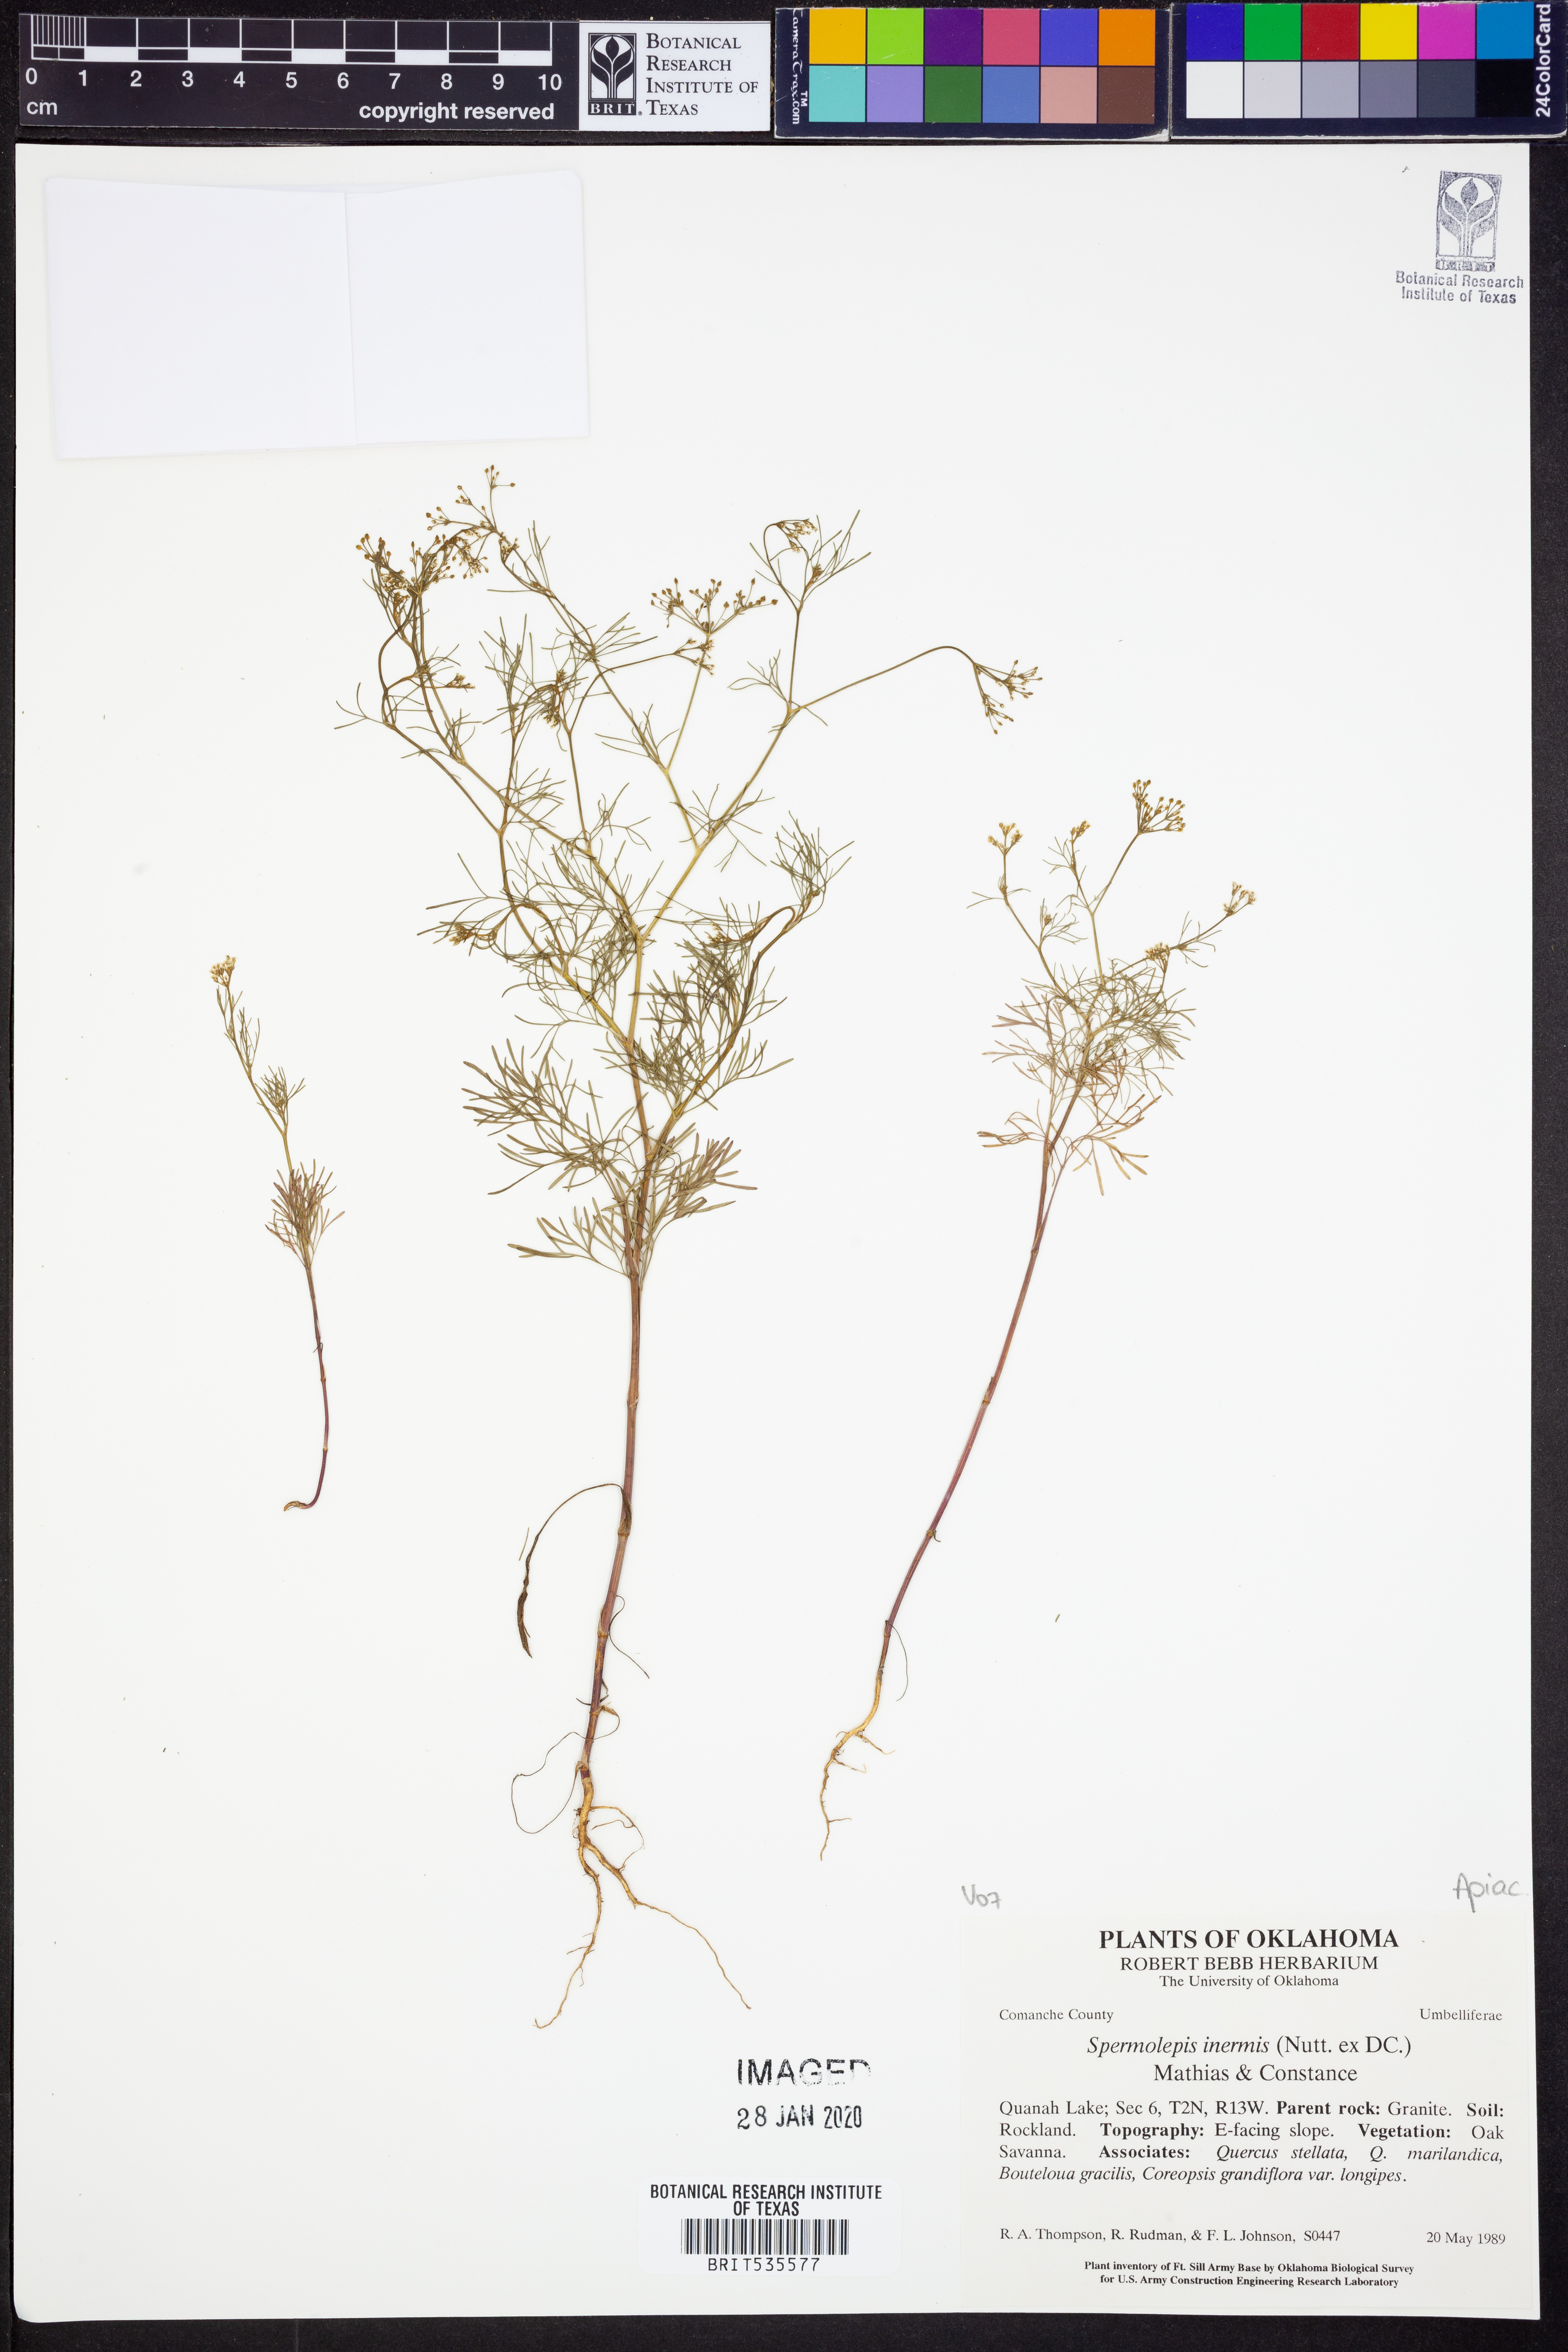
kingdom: Plantae
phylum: Tracheophyta
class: Magnoliopsida
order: Apiales
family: Apiaceae
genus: Spermolepis
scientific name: Spermolepis inermis
